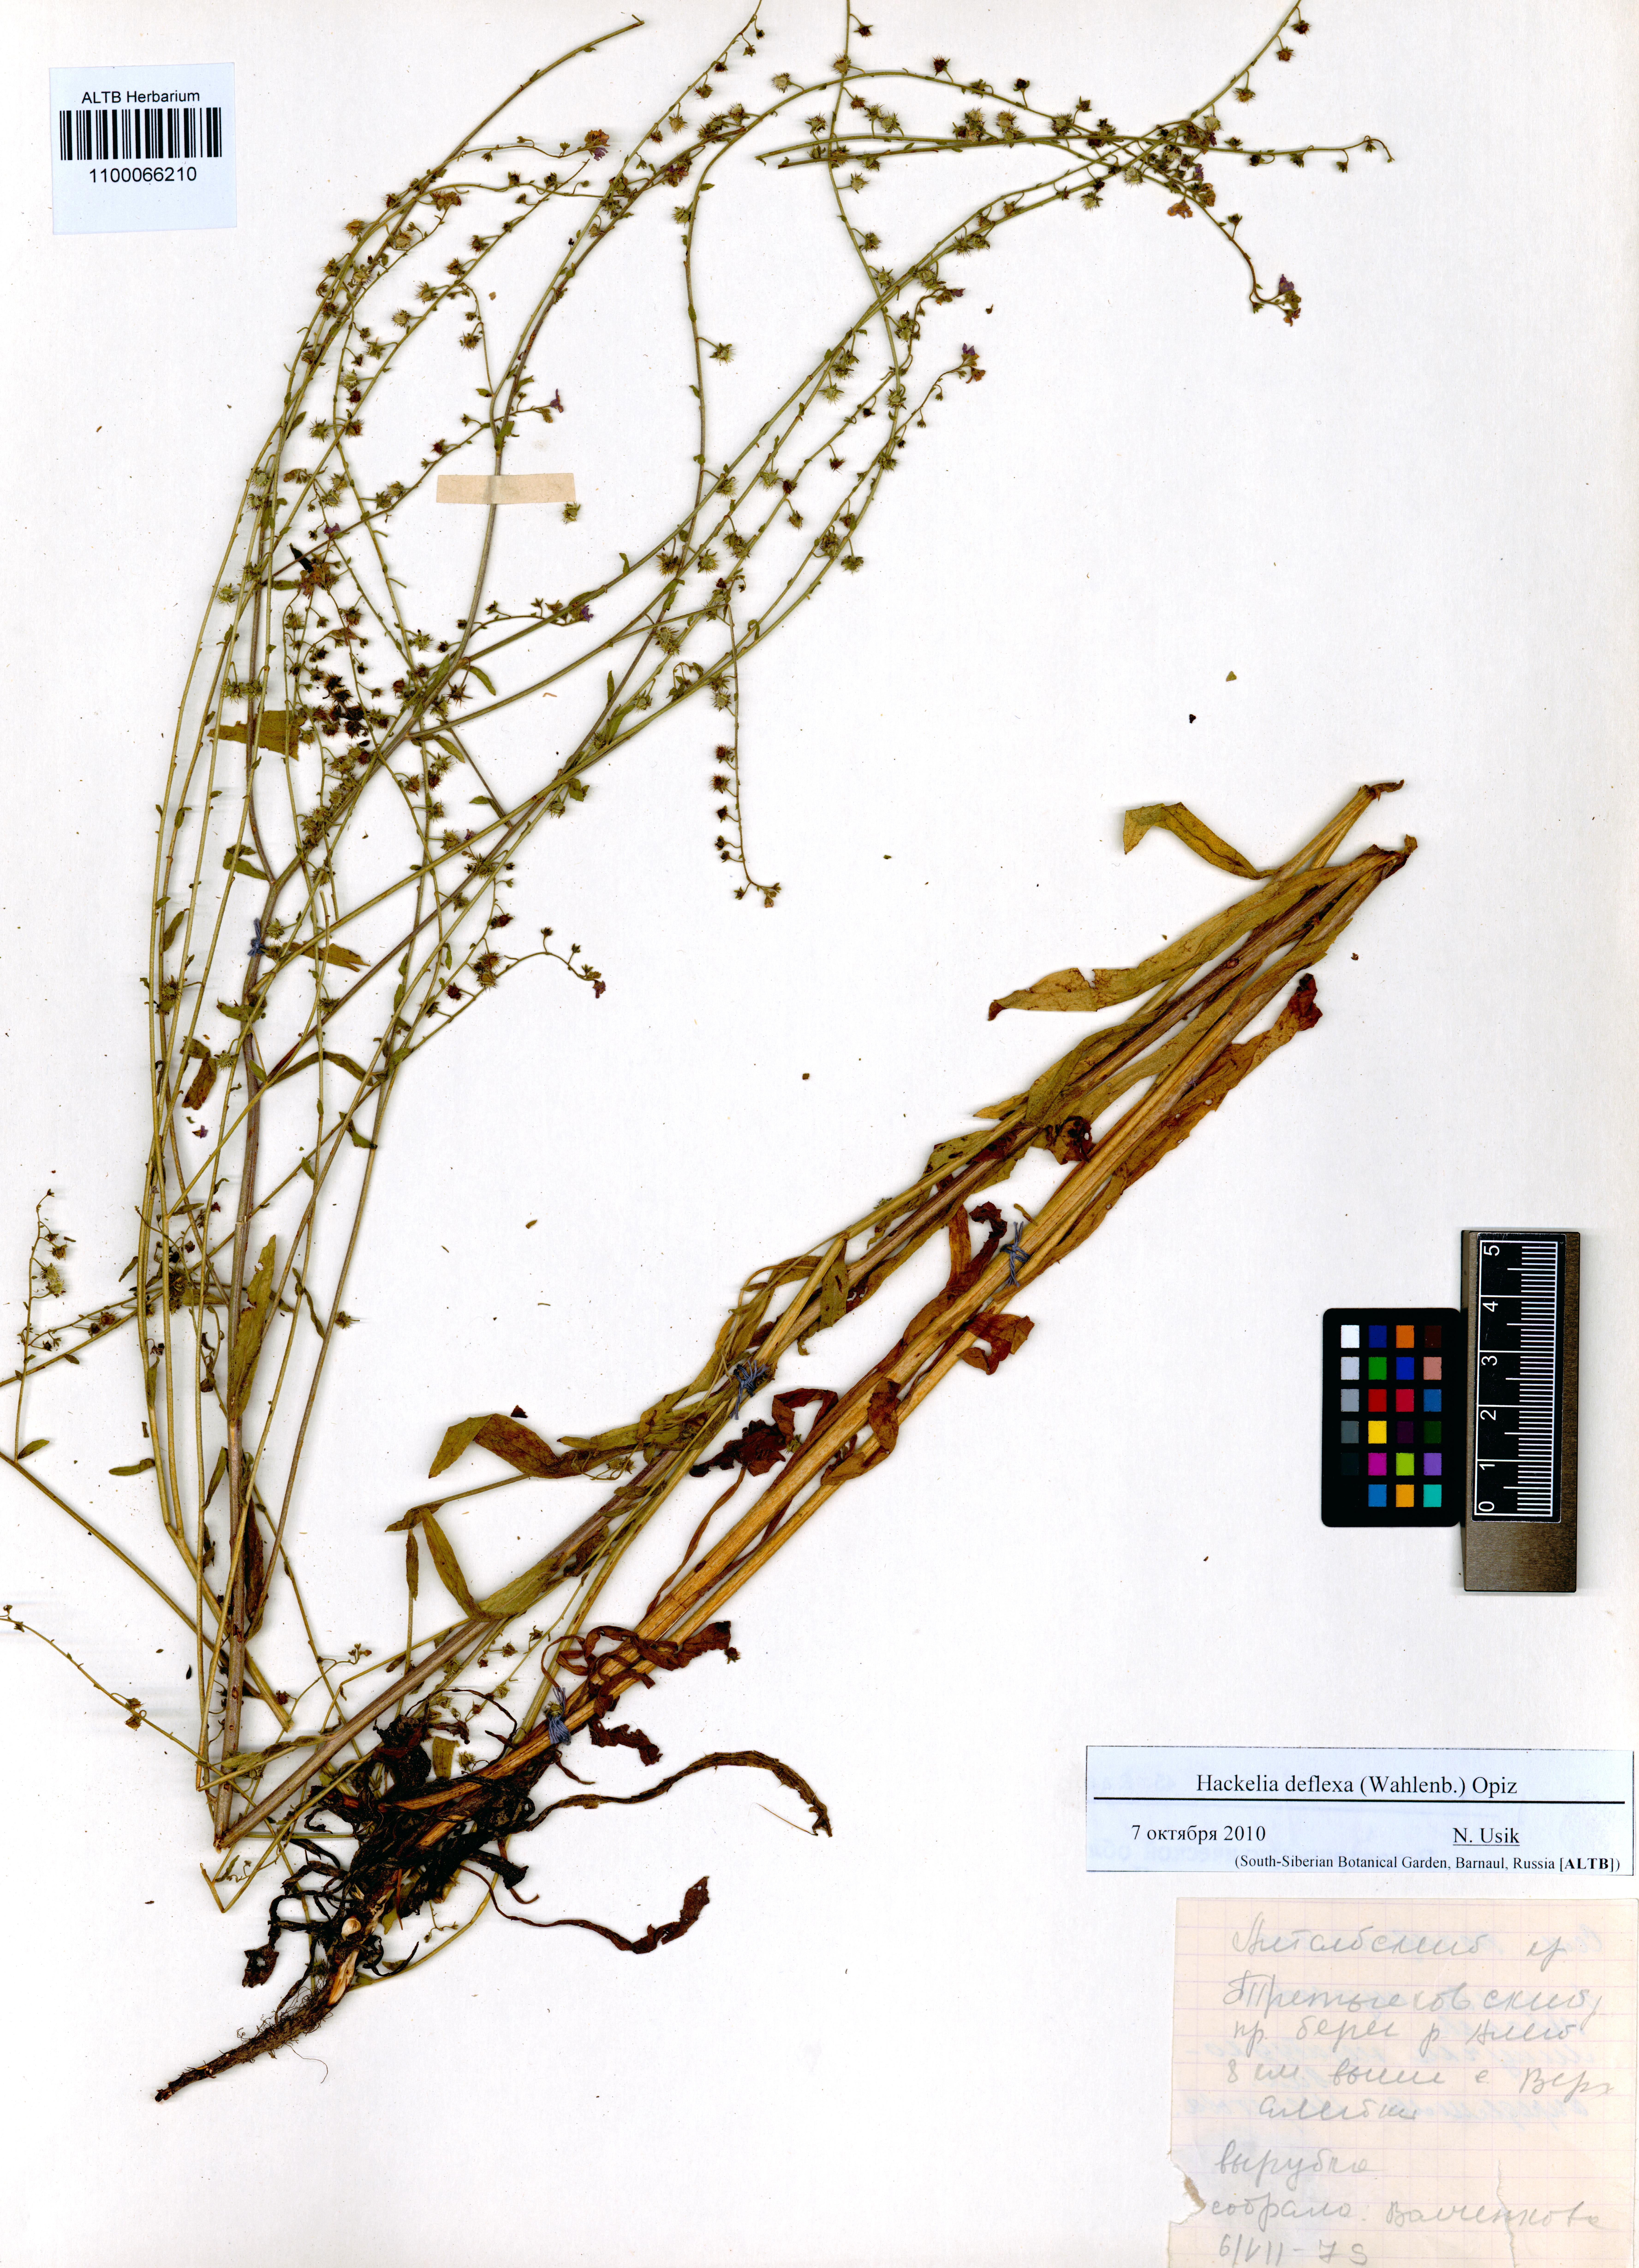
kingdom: Plantae
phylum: Tracheophyta
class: Magnoliopsida
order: Boraginales
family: Boraginaceae
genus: Hackelia
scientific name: Hackelia deflexa
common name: Nodding stickseed
